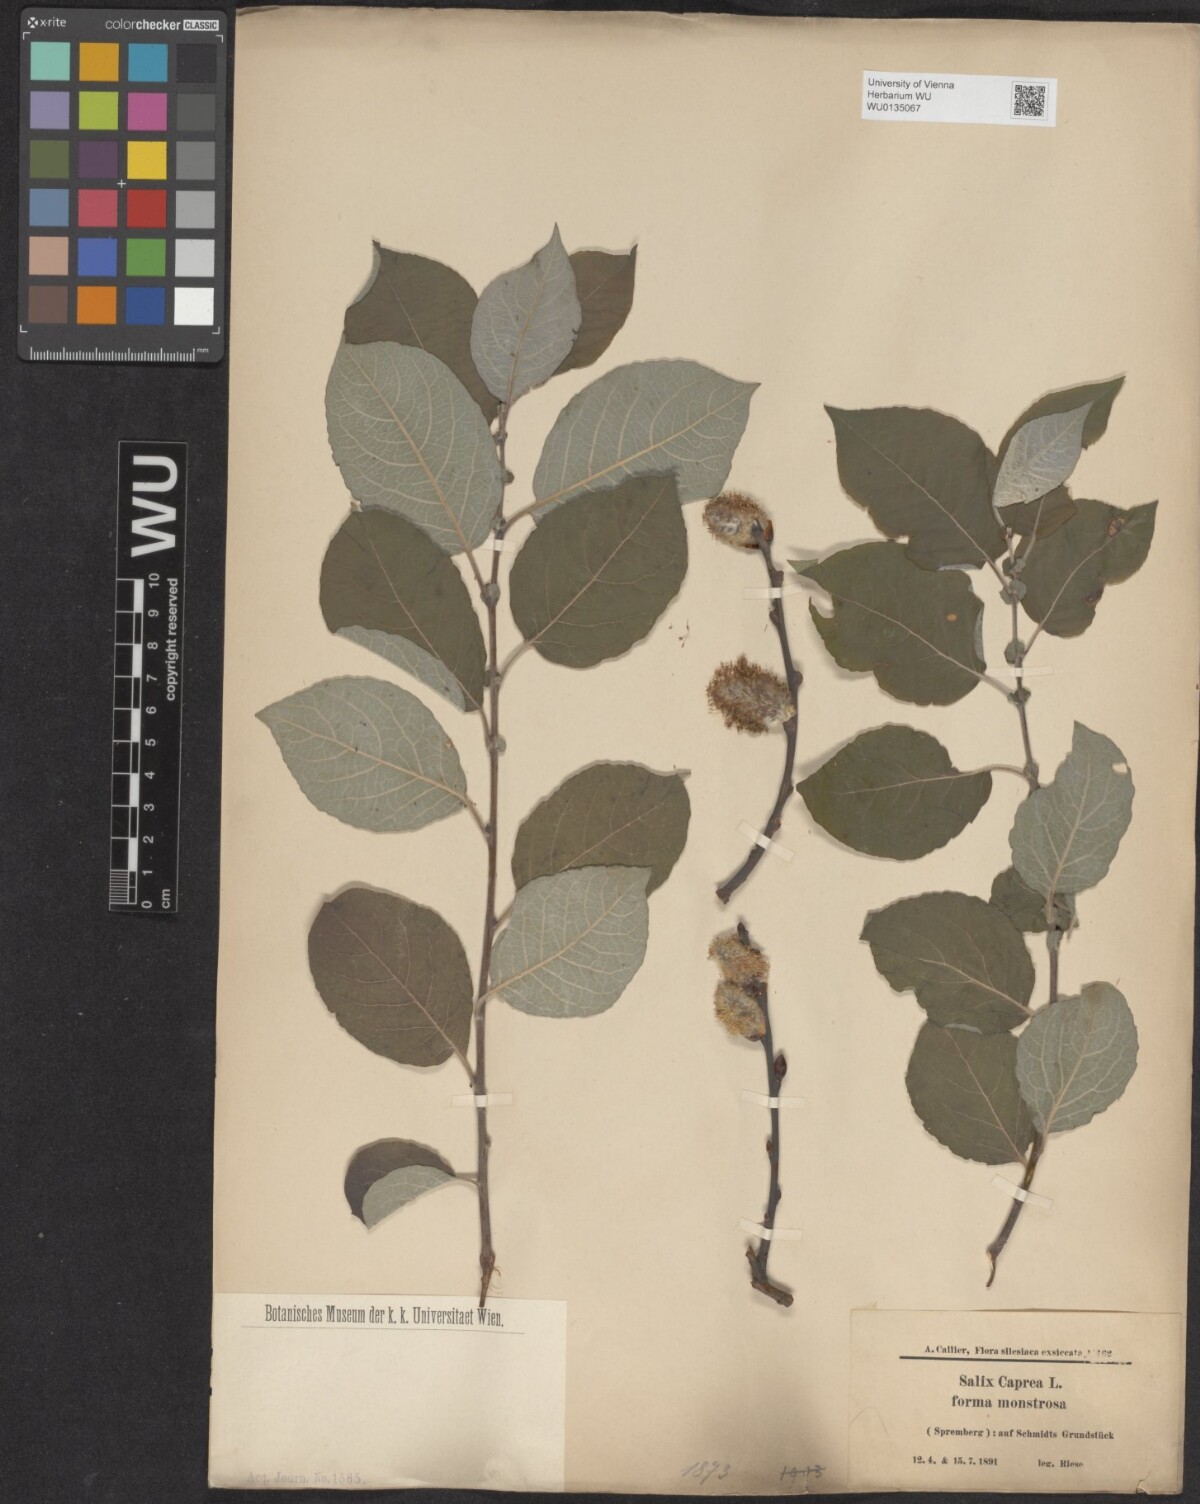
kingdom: Plantae
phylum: Tracheophyta
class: Magnoliopsida
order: Malpighiales
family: Salicaceae
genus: Salix
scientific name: Salix caprea
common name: Goat willow
